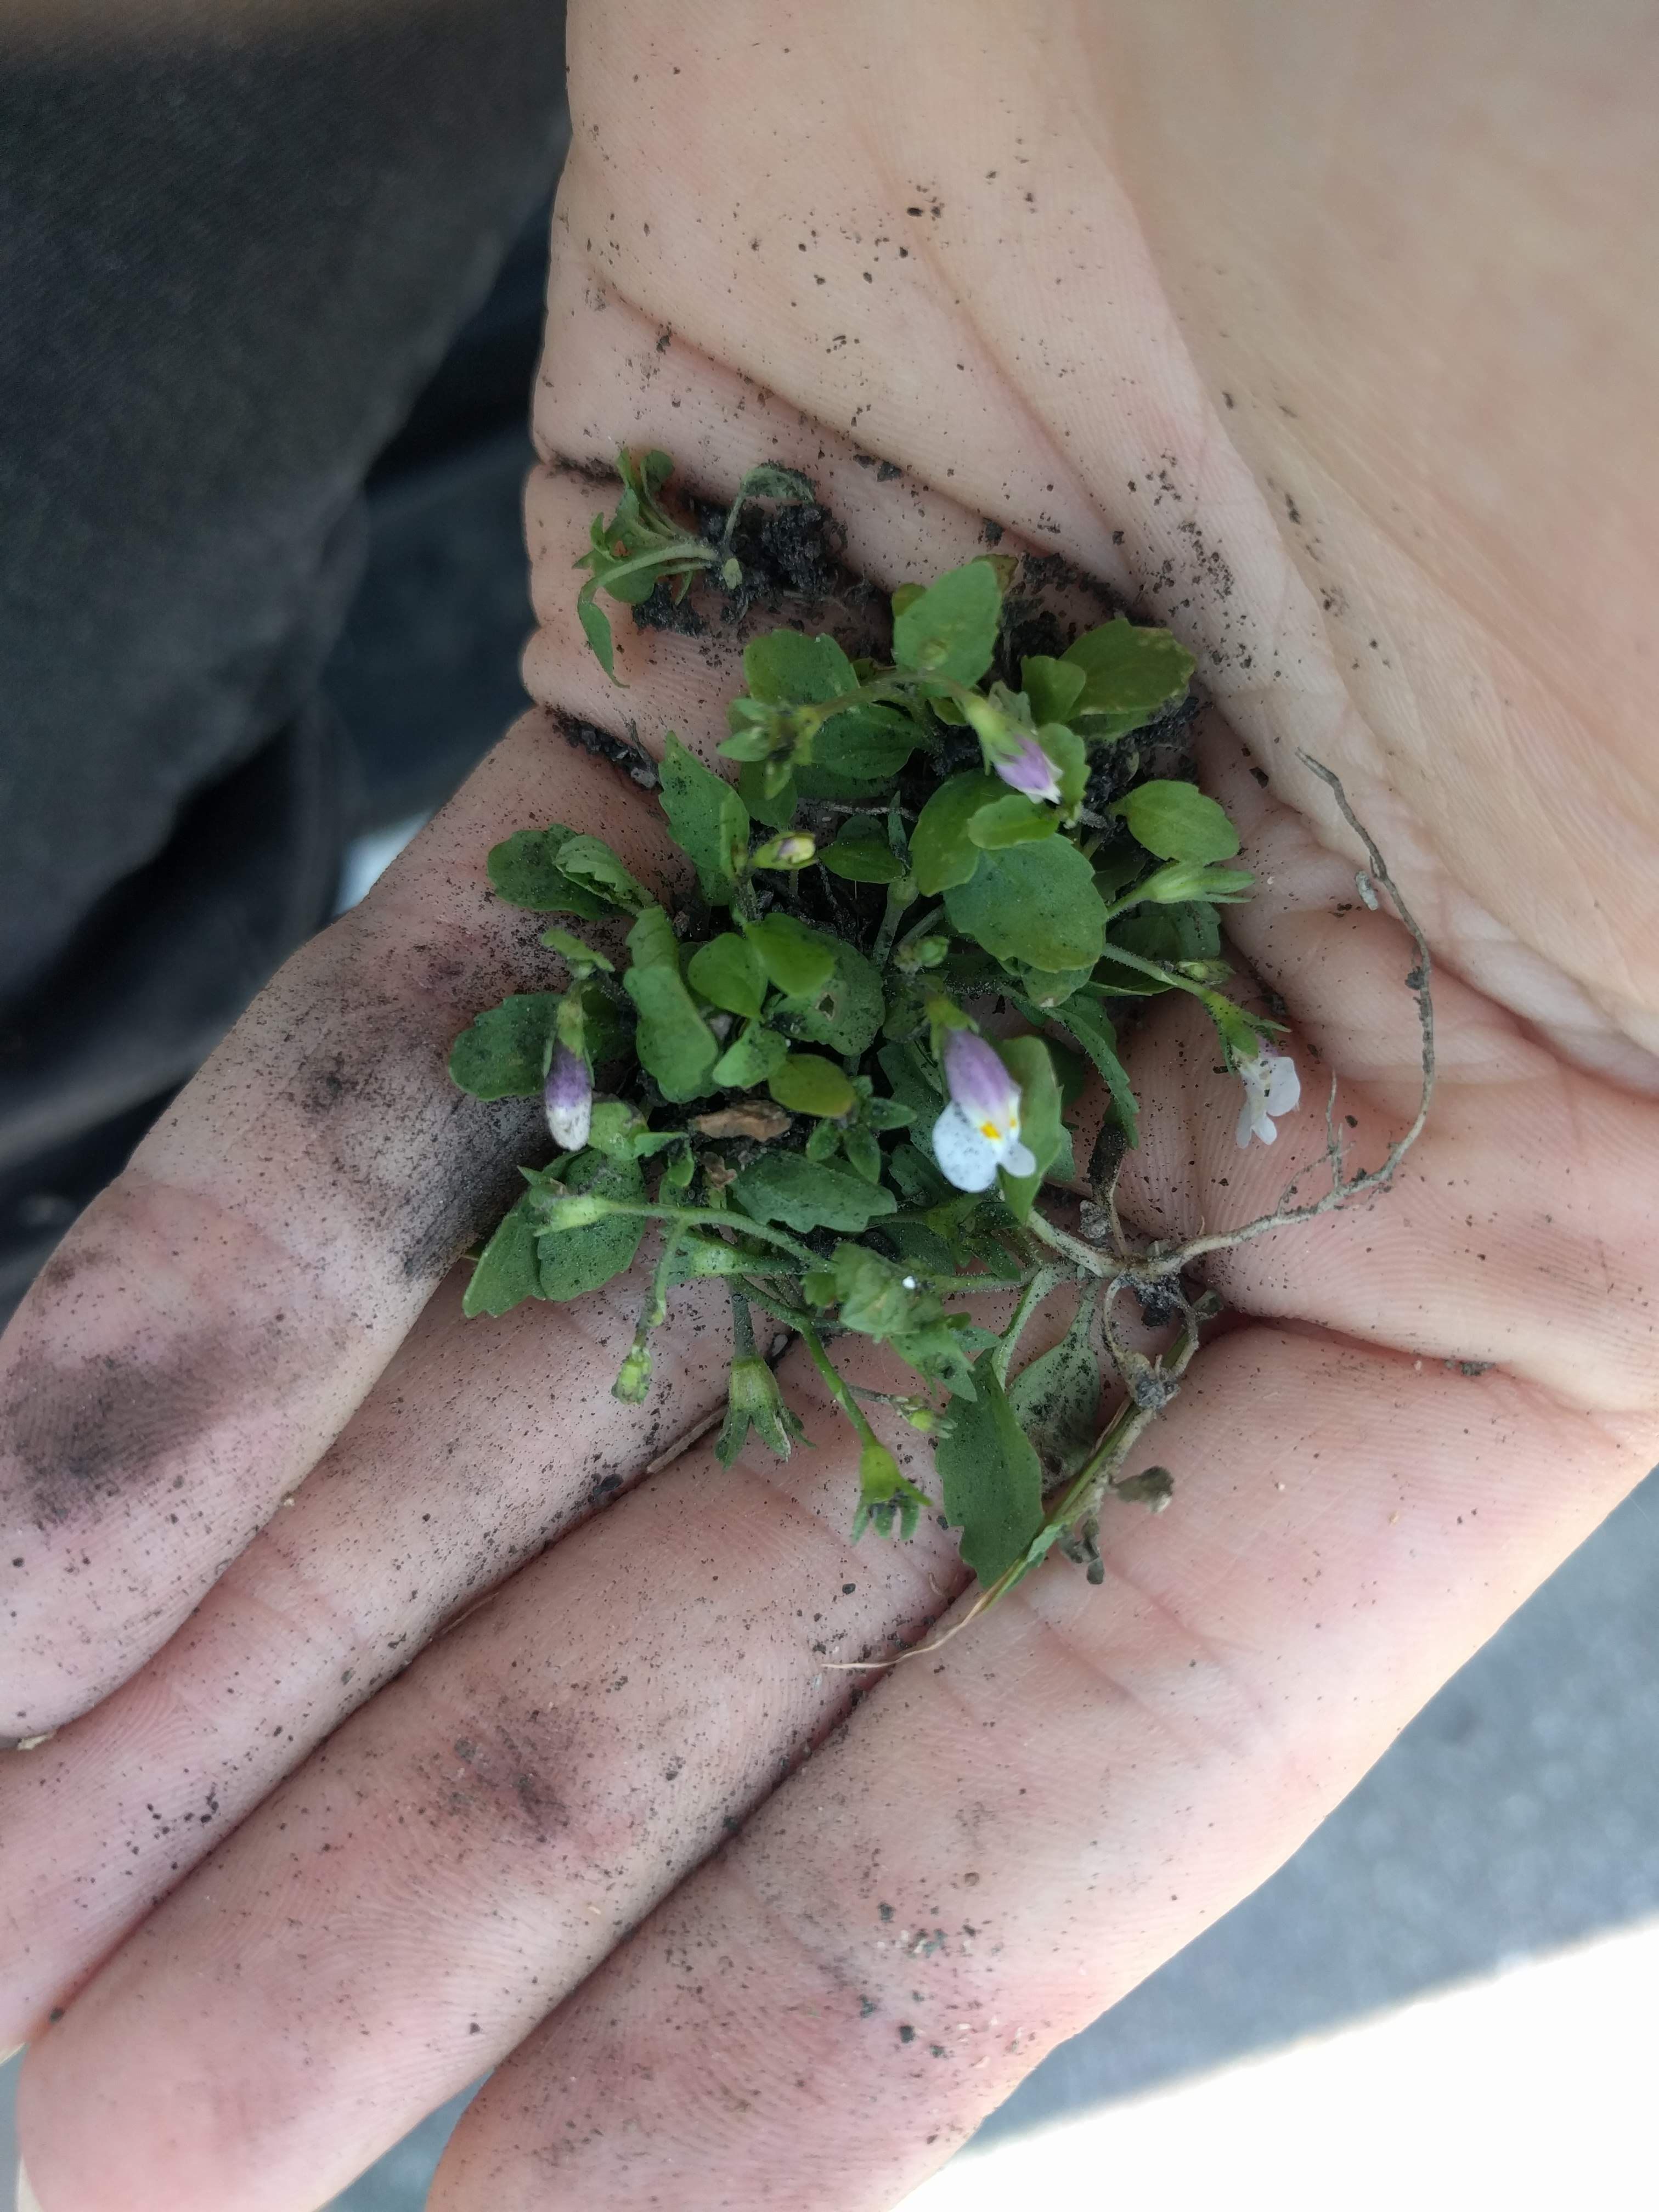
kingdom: Plantae
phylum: Tracheophyta
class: Magnoliopsida
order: Lamiales
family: Mazaceae
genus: Mazus
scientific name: Mazus pumilus
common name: Japanese mazus
